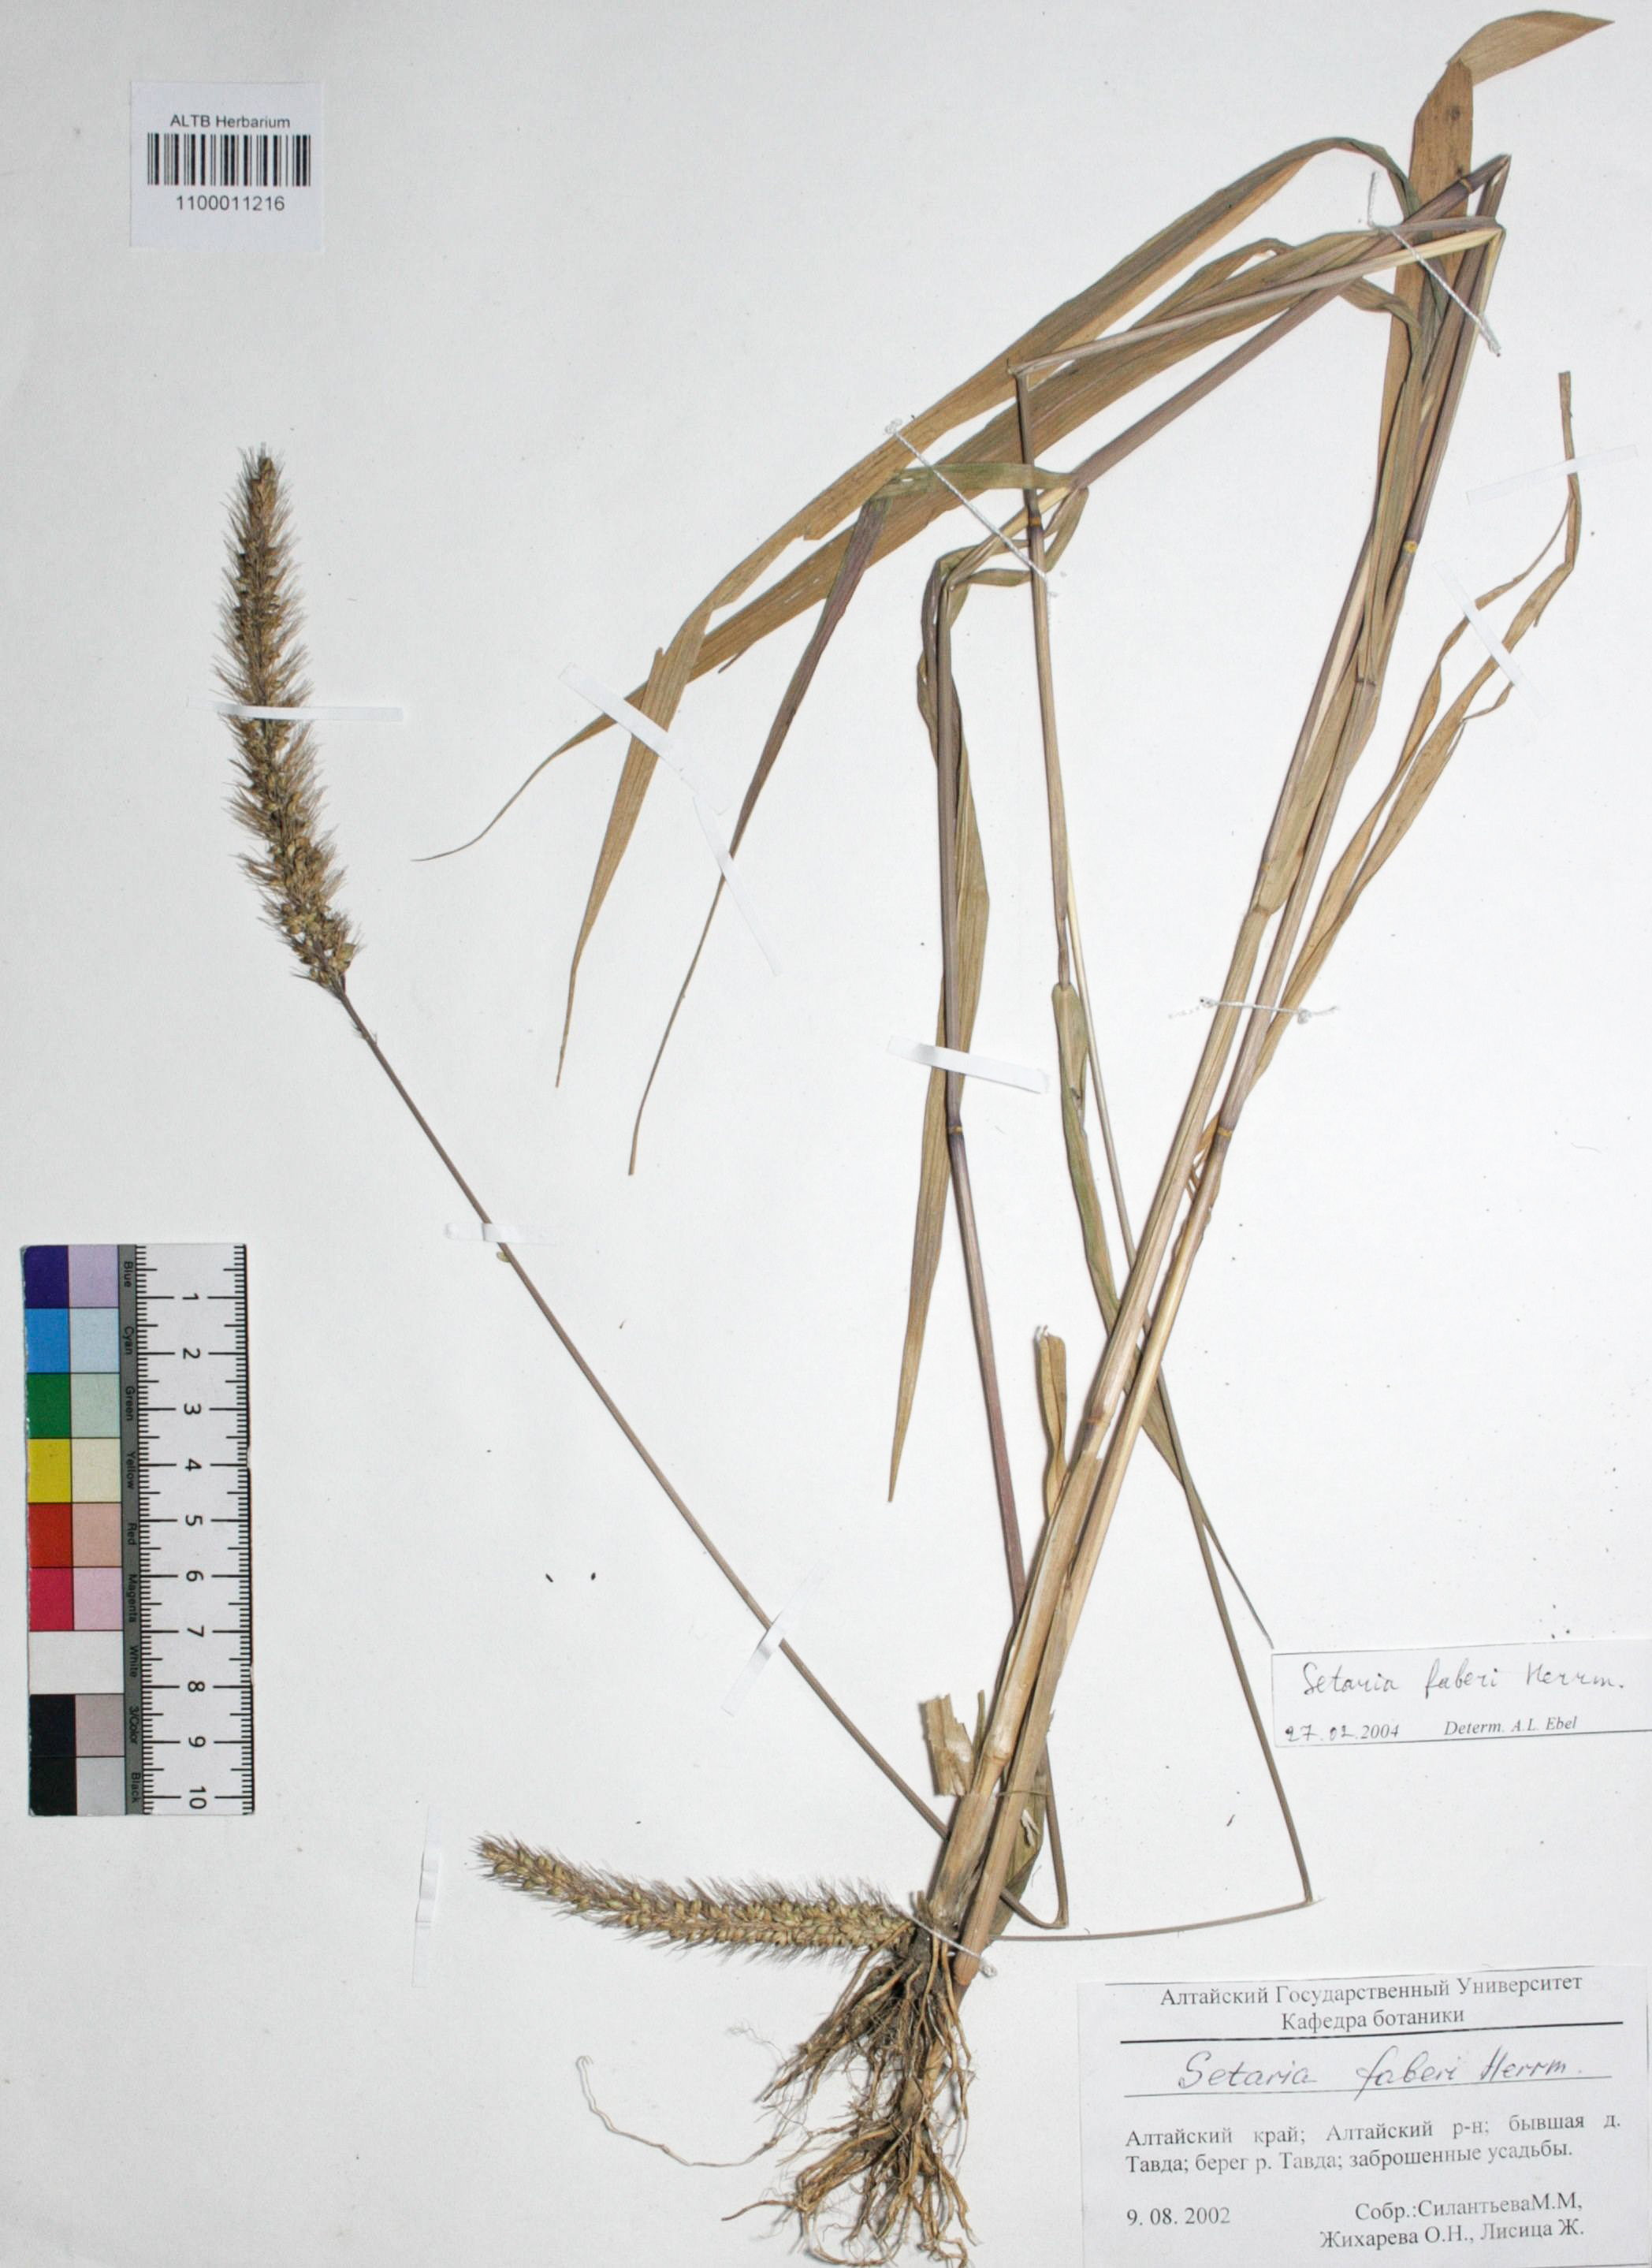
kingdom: Plantae
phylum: Tracheophyta
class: Liliopsida
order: Poales
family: Poaceae
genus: Setaria
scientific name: Setaria faberi
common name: Nodding bristle-grass
